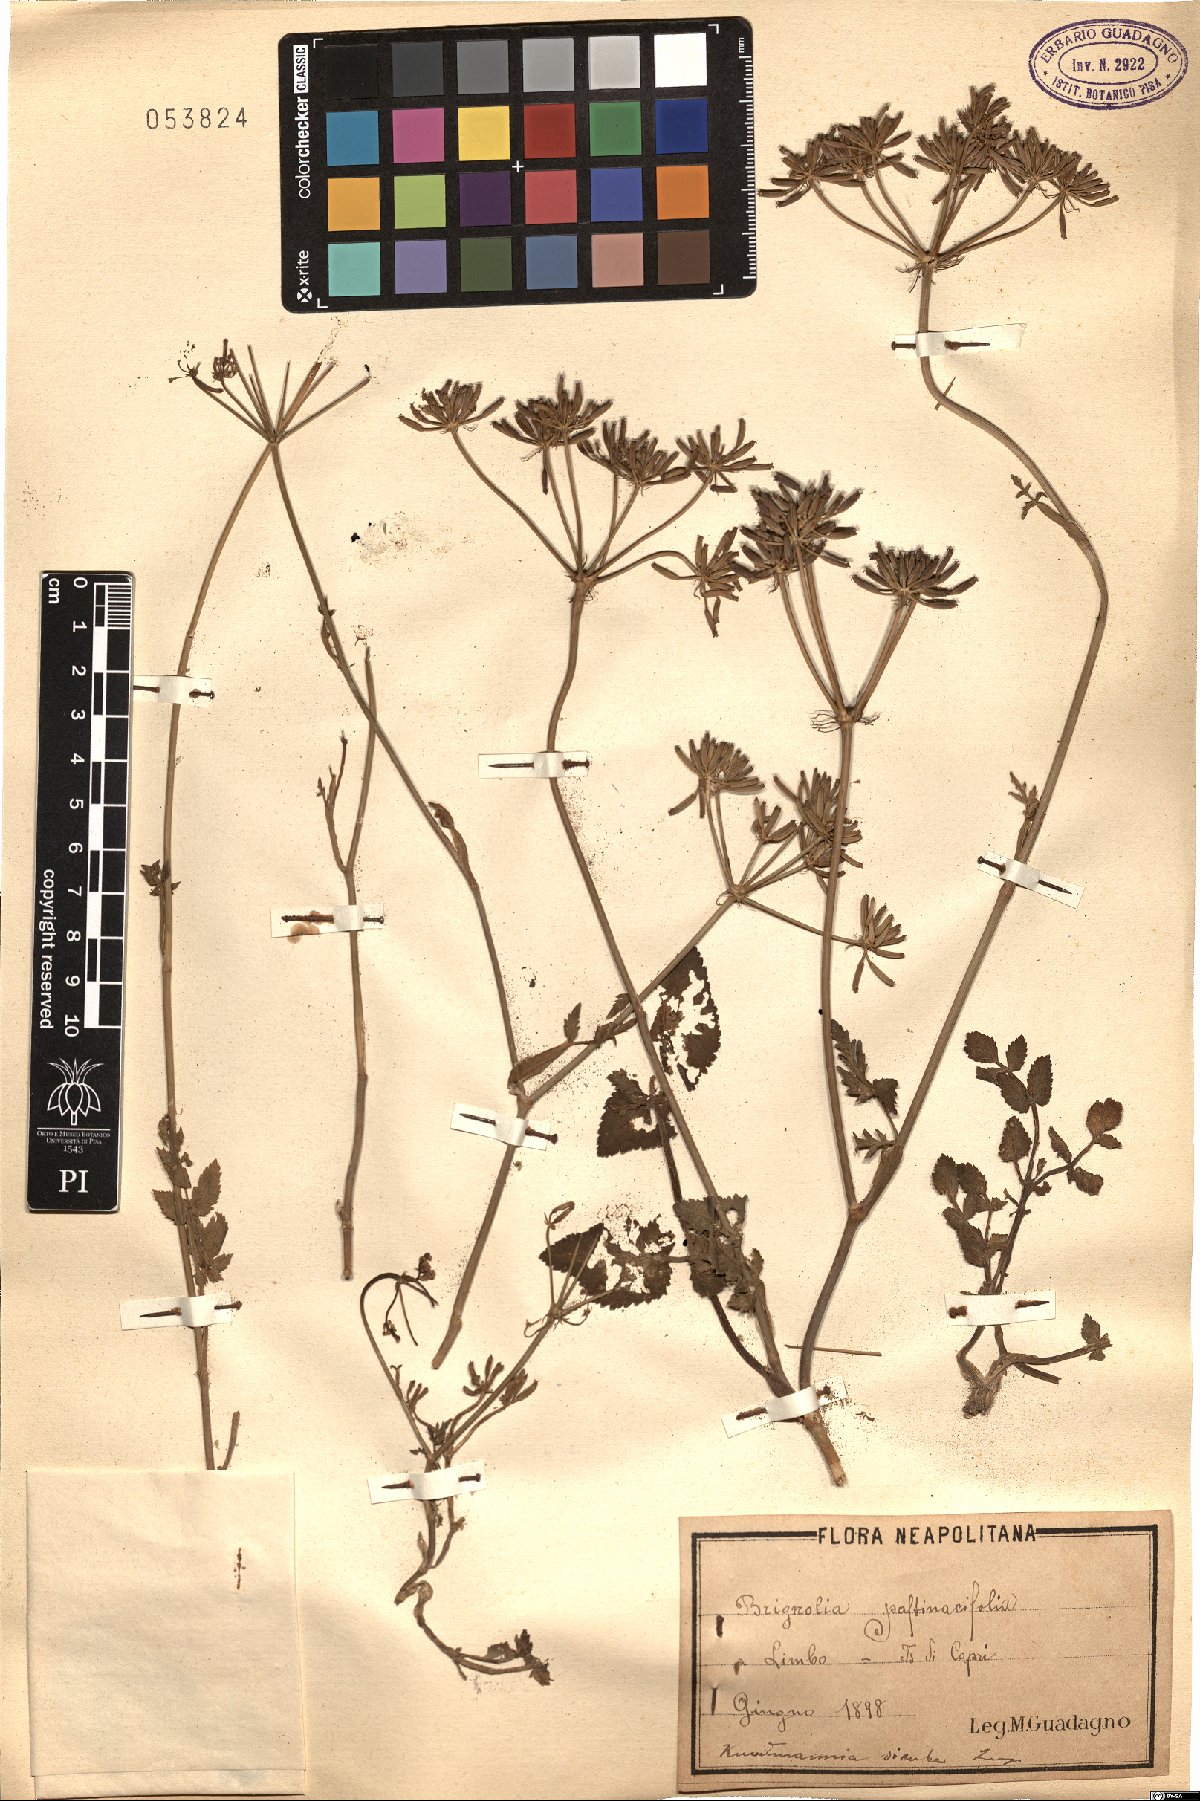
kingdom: Plantae
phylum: Tracheophyta
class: Magnoliopsida
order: Apiales
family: Apiaceae
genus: Kundmannia
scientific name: Kundmannia sicula
